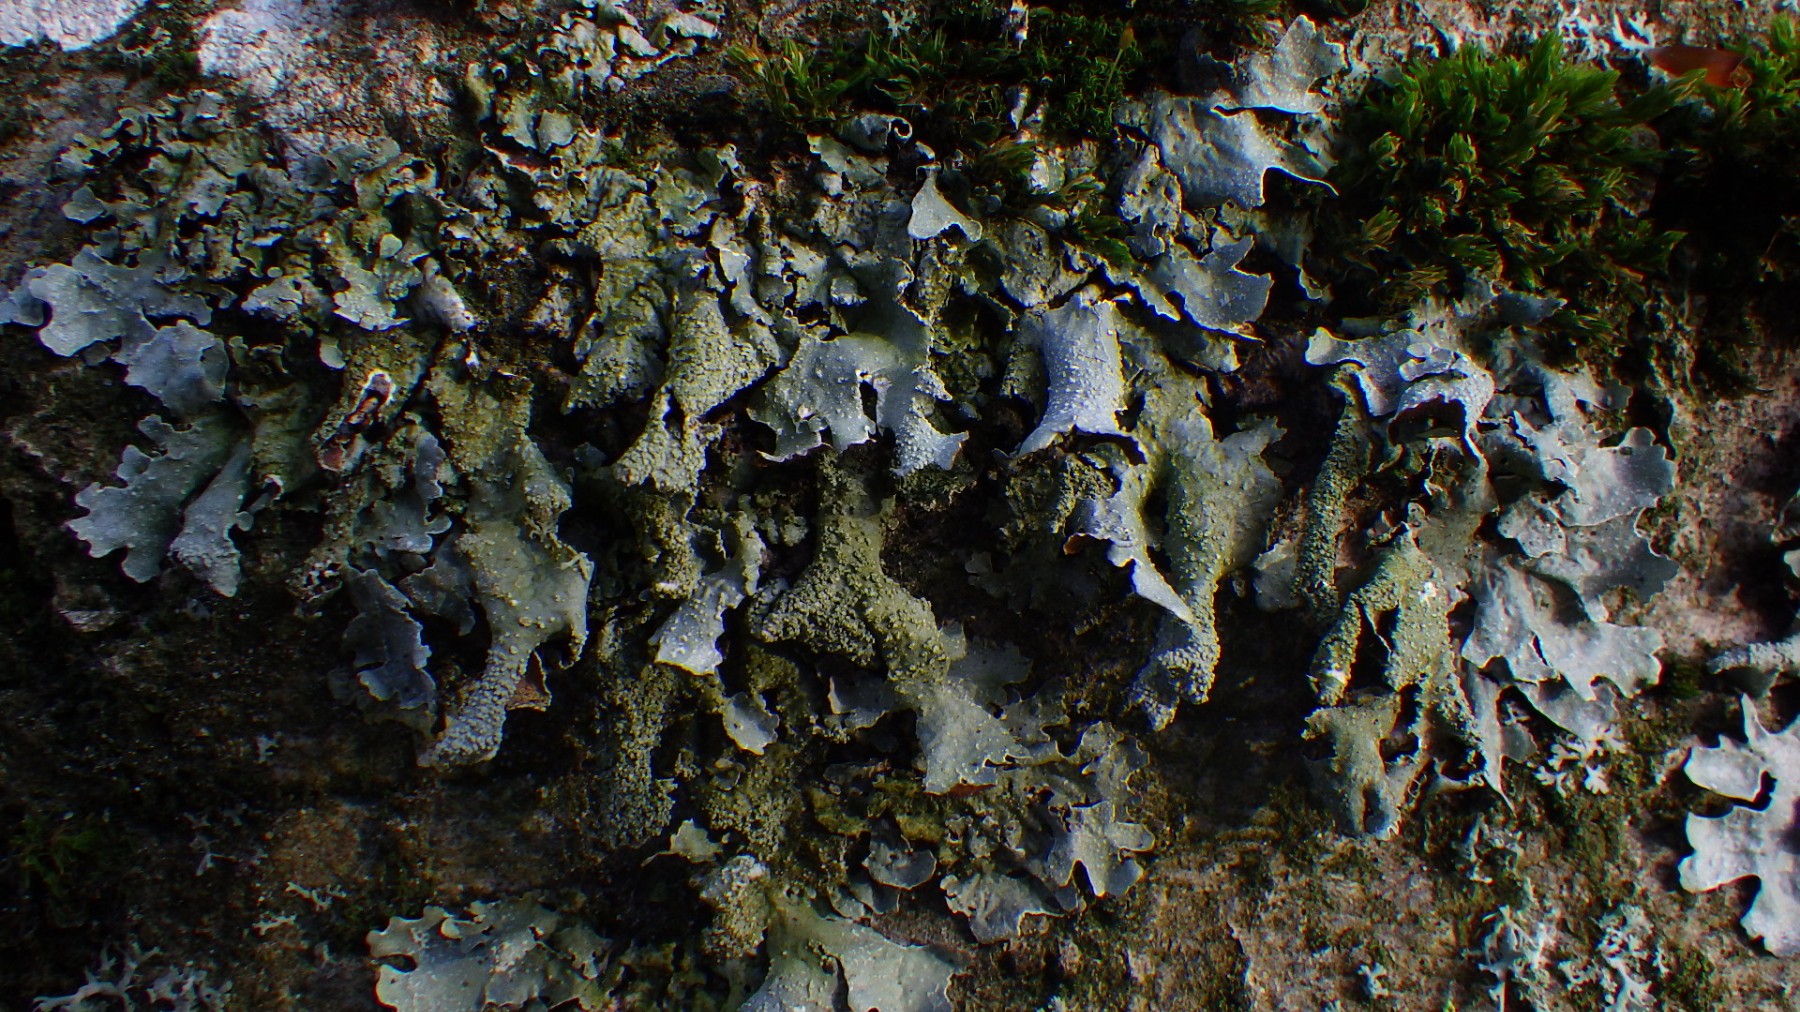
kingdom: Fungi
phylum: Ascomycota
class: Lecanoromycetes
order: Lecanorales
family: Parmeliaceae
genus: Parmelia
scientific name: Parmelia submontana
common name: langlobet skållav
